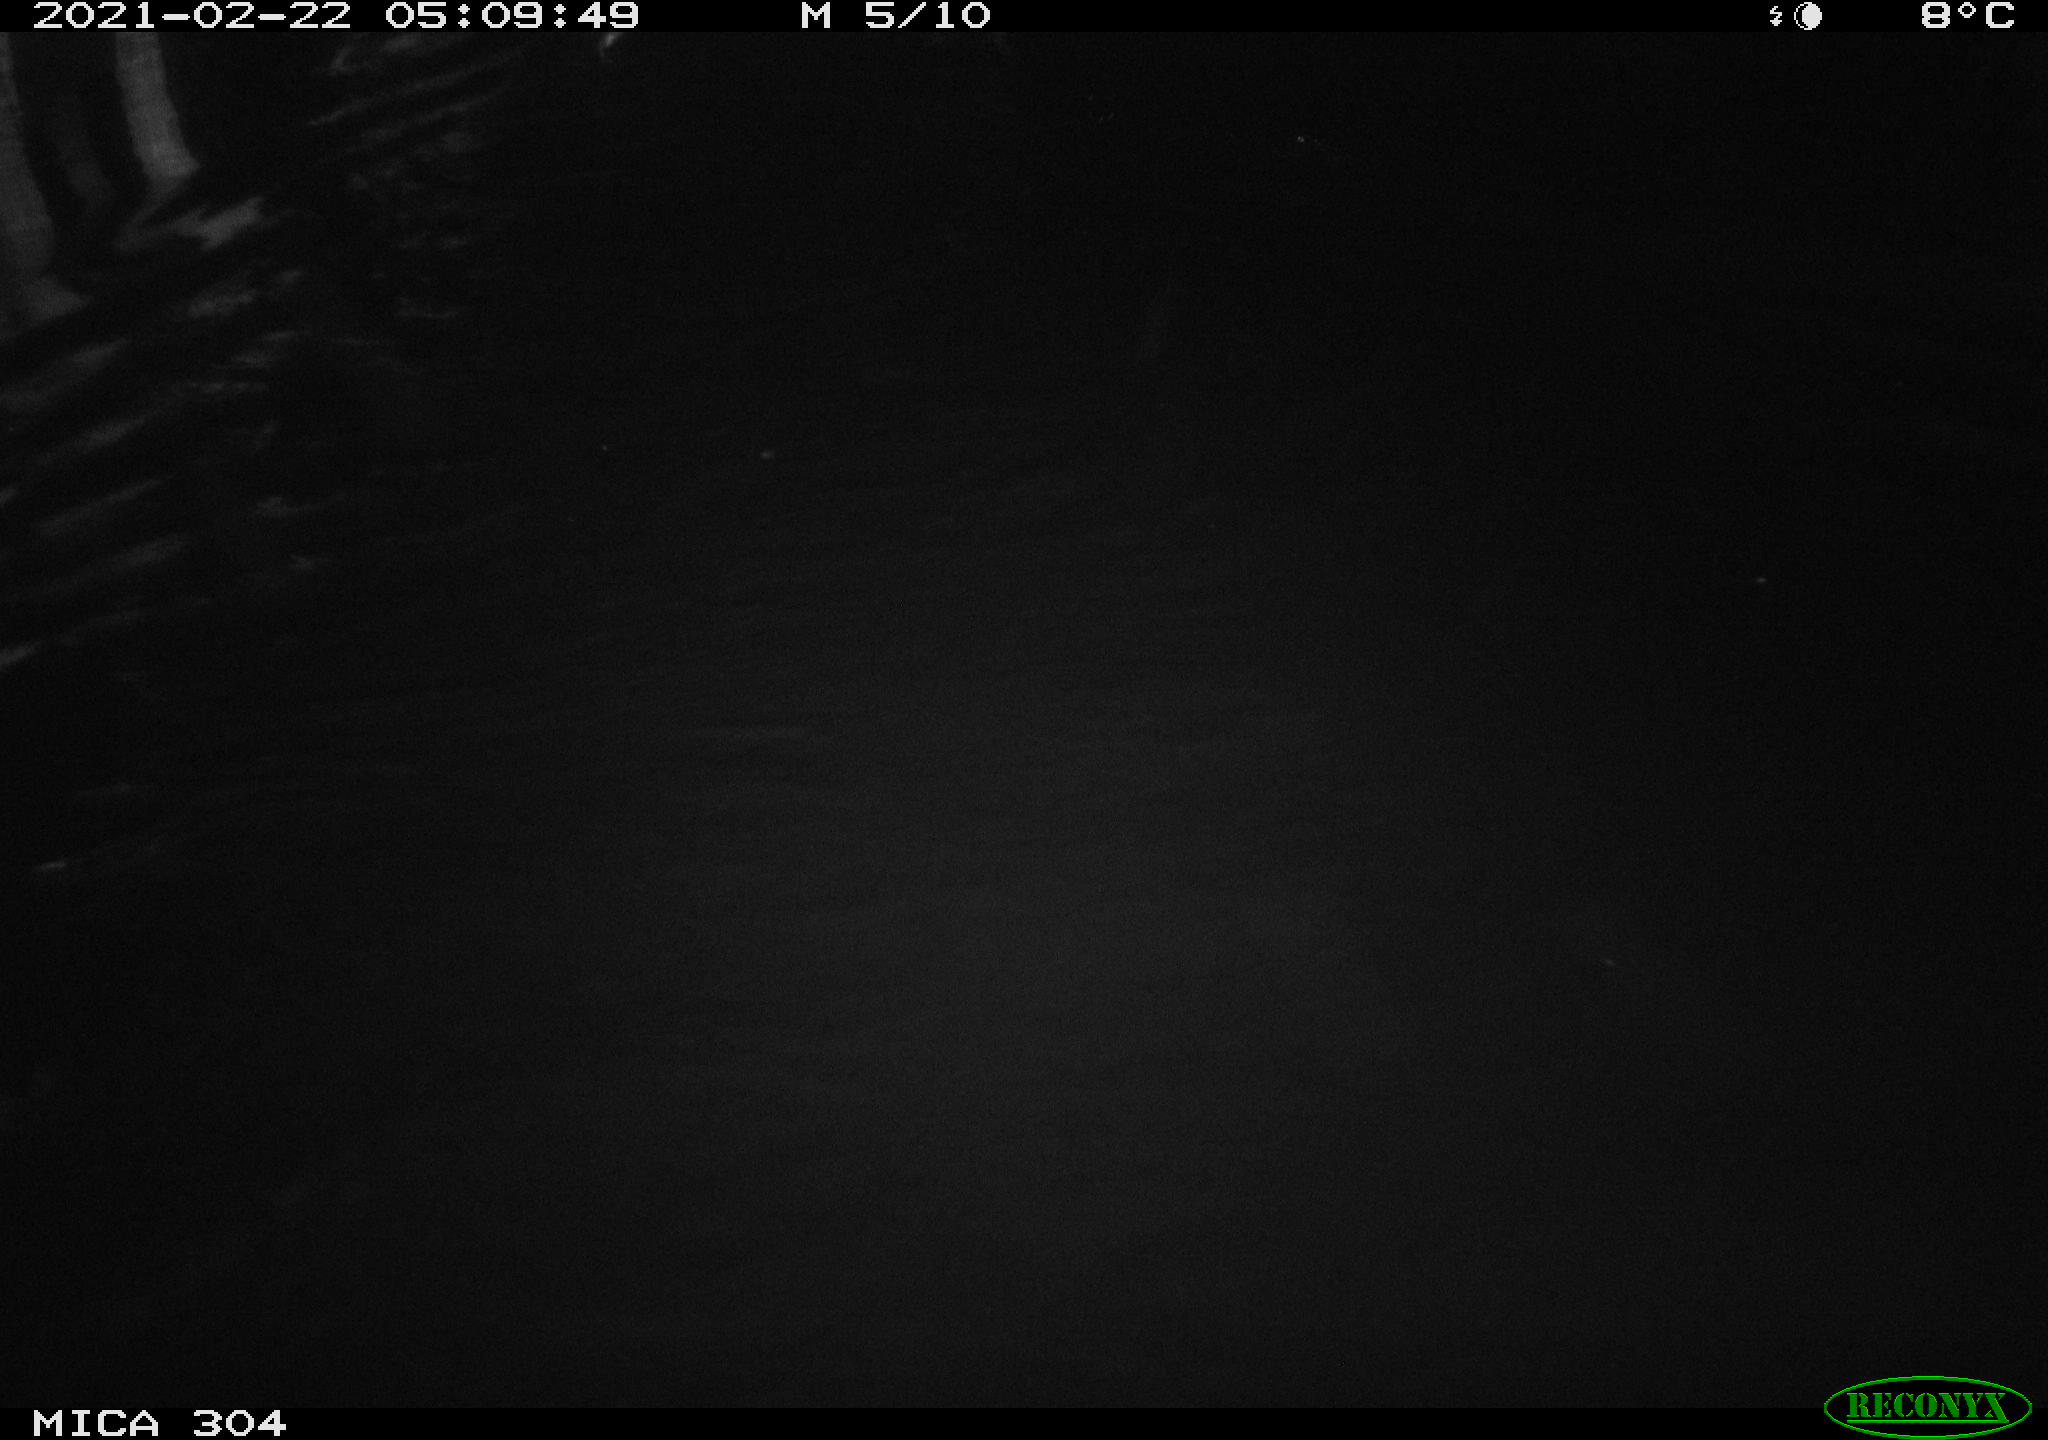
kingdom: Animalia
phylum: Chordata
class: Mammalia
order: Rodentia
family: Cricetidae
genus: Ondatra
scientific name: Ondatra zibethicus
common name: Muskrat
